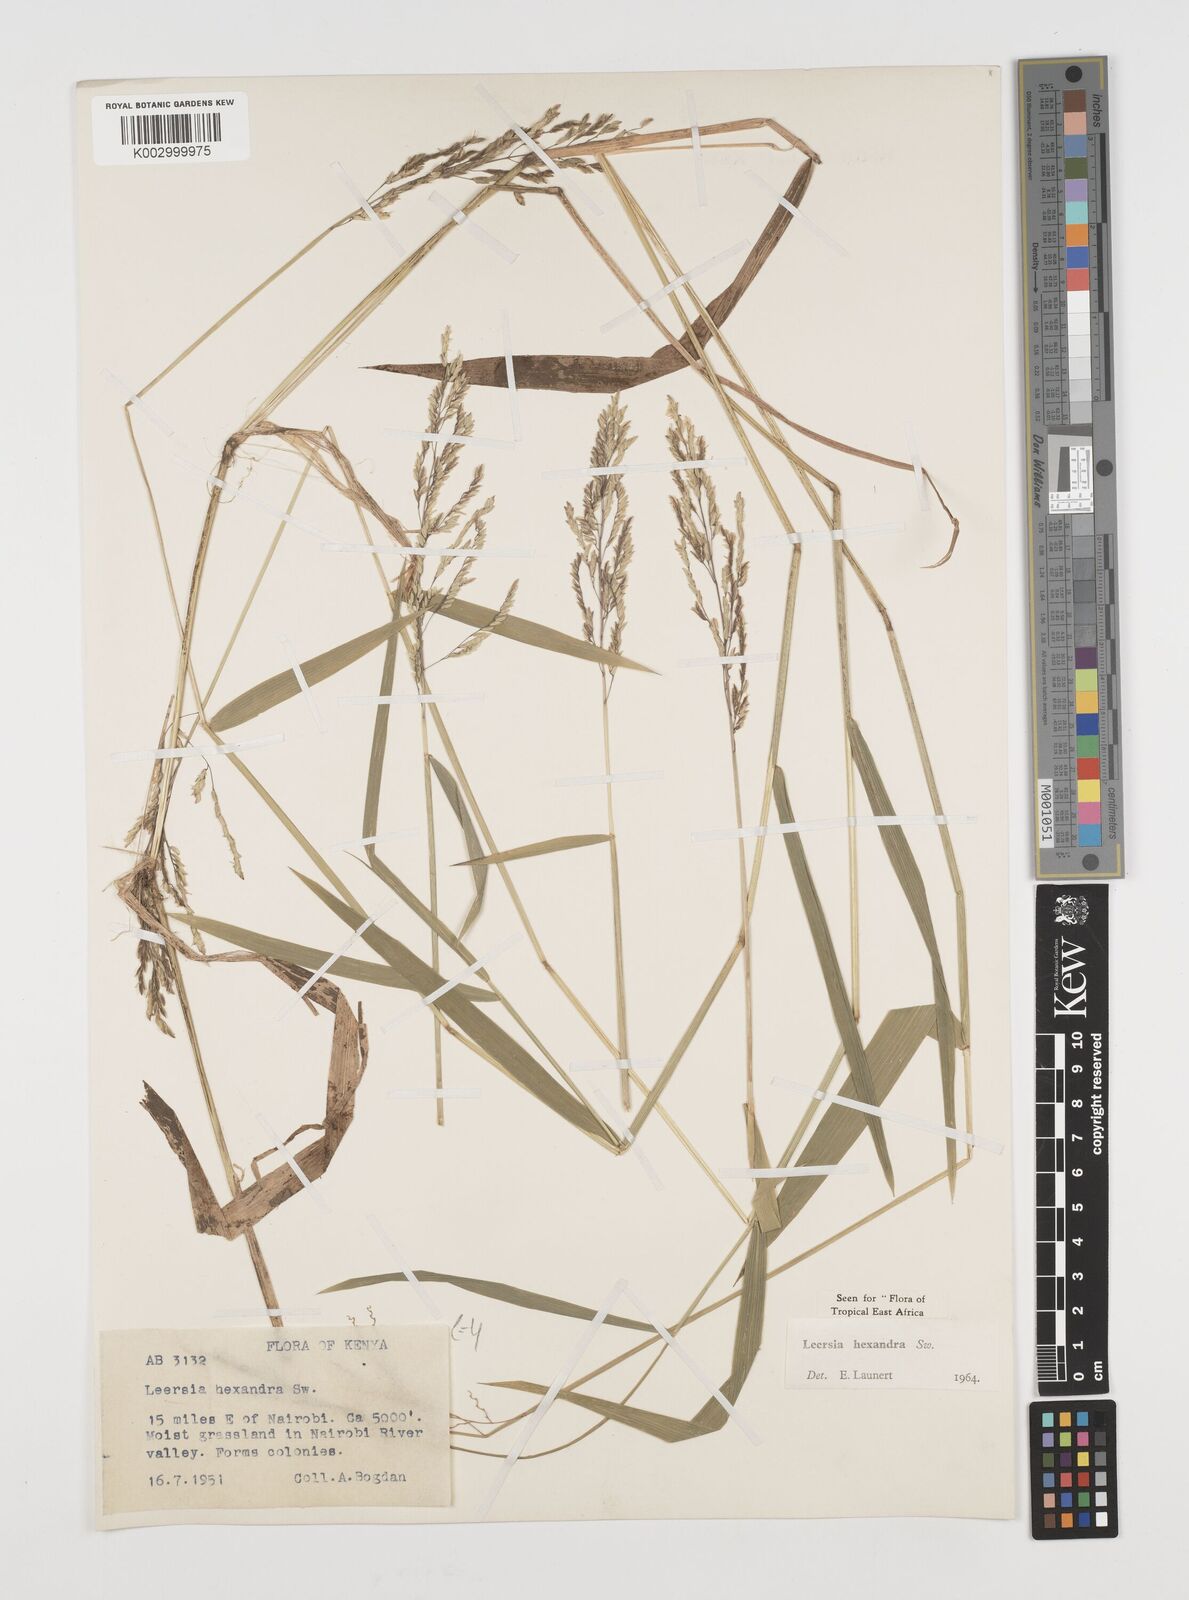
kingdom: Plantae
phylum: Tracheophyta
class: Liliopsida
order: Poales
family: Poaceae
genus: Leersia
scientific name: Leersia hexandra
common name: Southern cut grass
